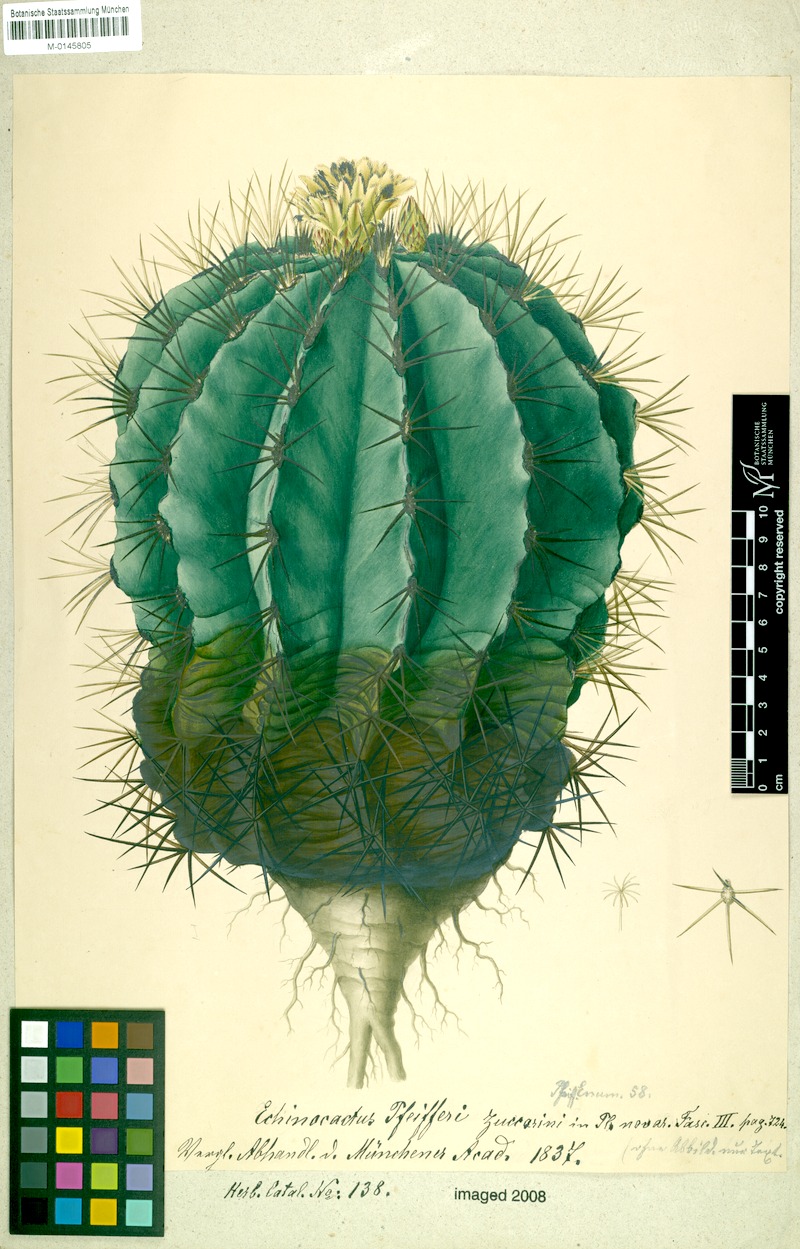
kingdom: Plantae
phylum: Tracheophyta
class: Magnoliopsida
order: Caryophyllales
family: Cactaceae
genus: Bisnaga
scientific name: Bisnaga glaucescens
